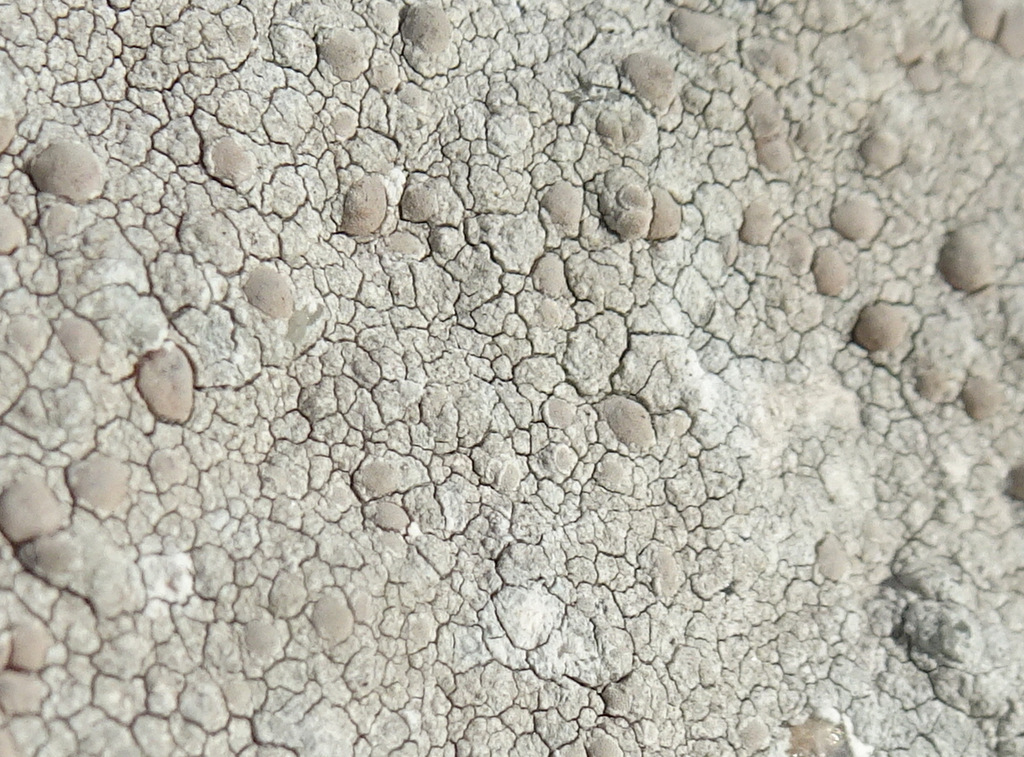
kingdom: Fungi
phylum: Ascomycota
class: Lecanoromycetes
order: Lecanorales
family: Lecanoraceae
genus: Glaucomaria
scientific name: Glaucomaria rupicola
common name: stengærde-kantskivelav
